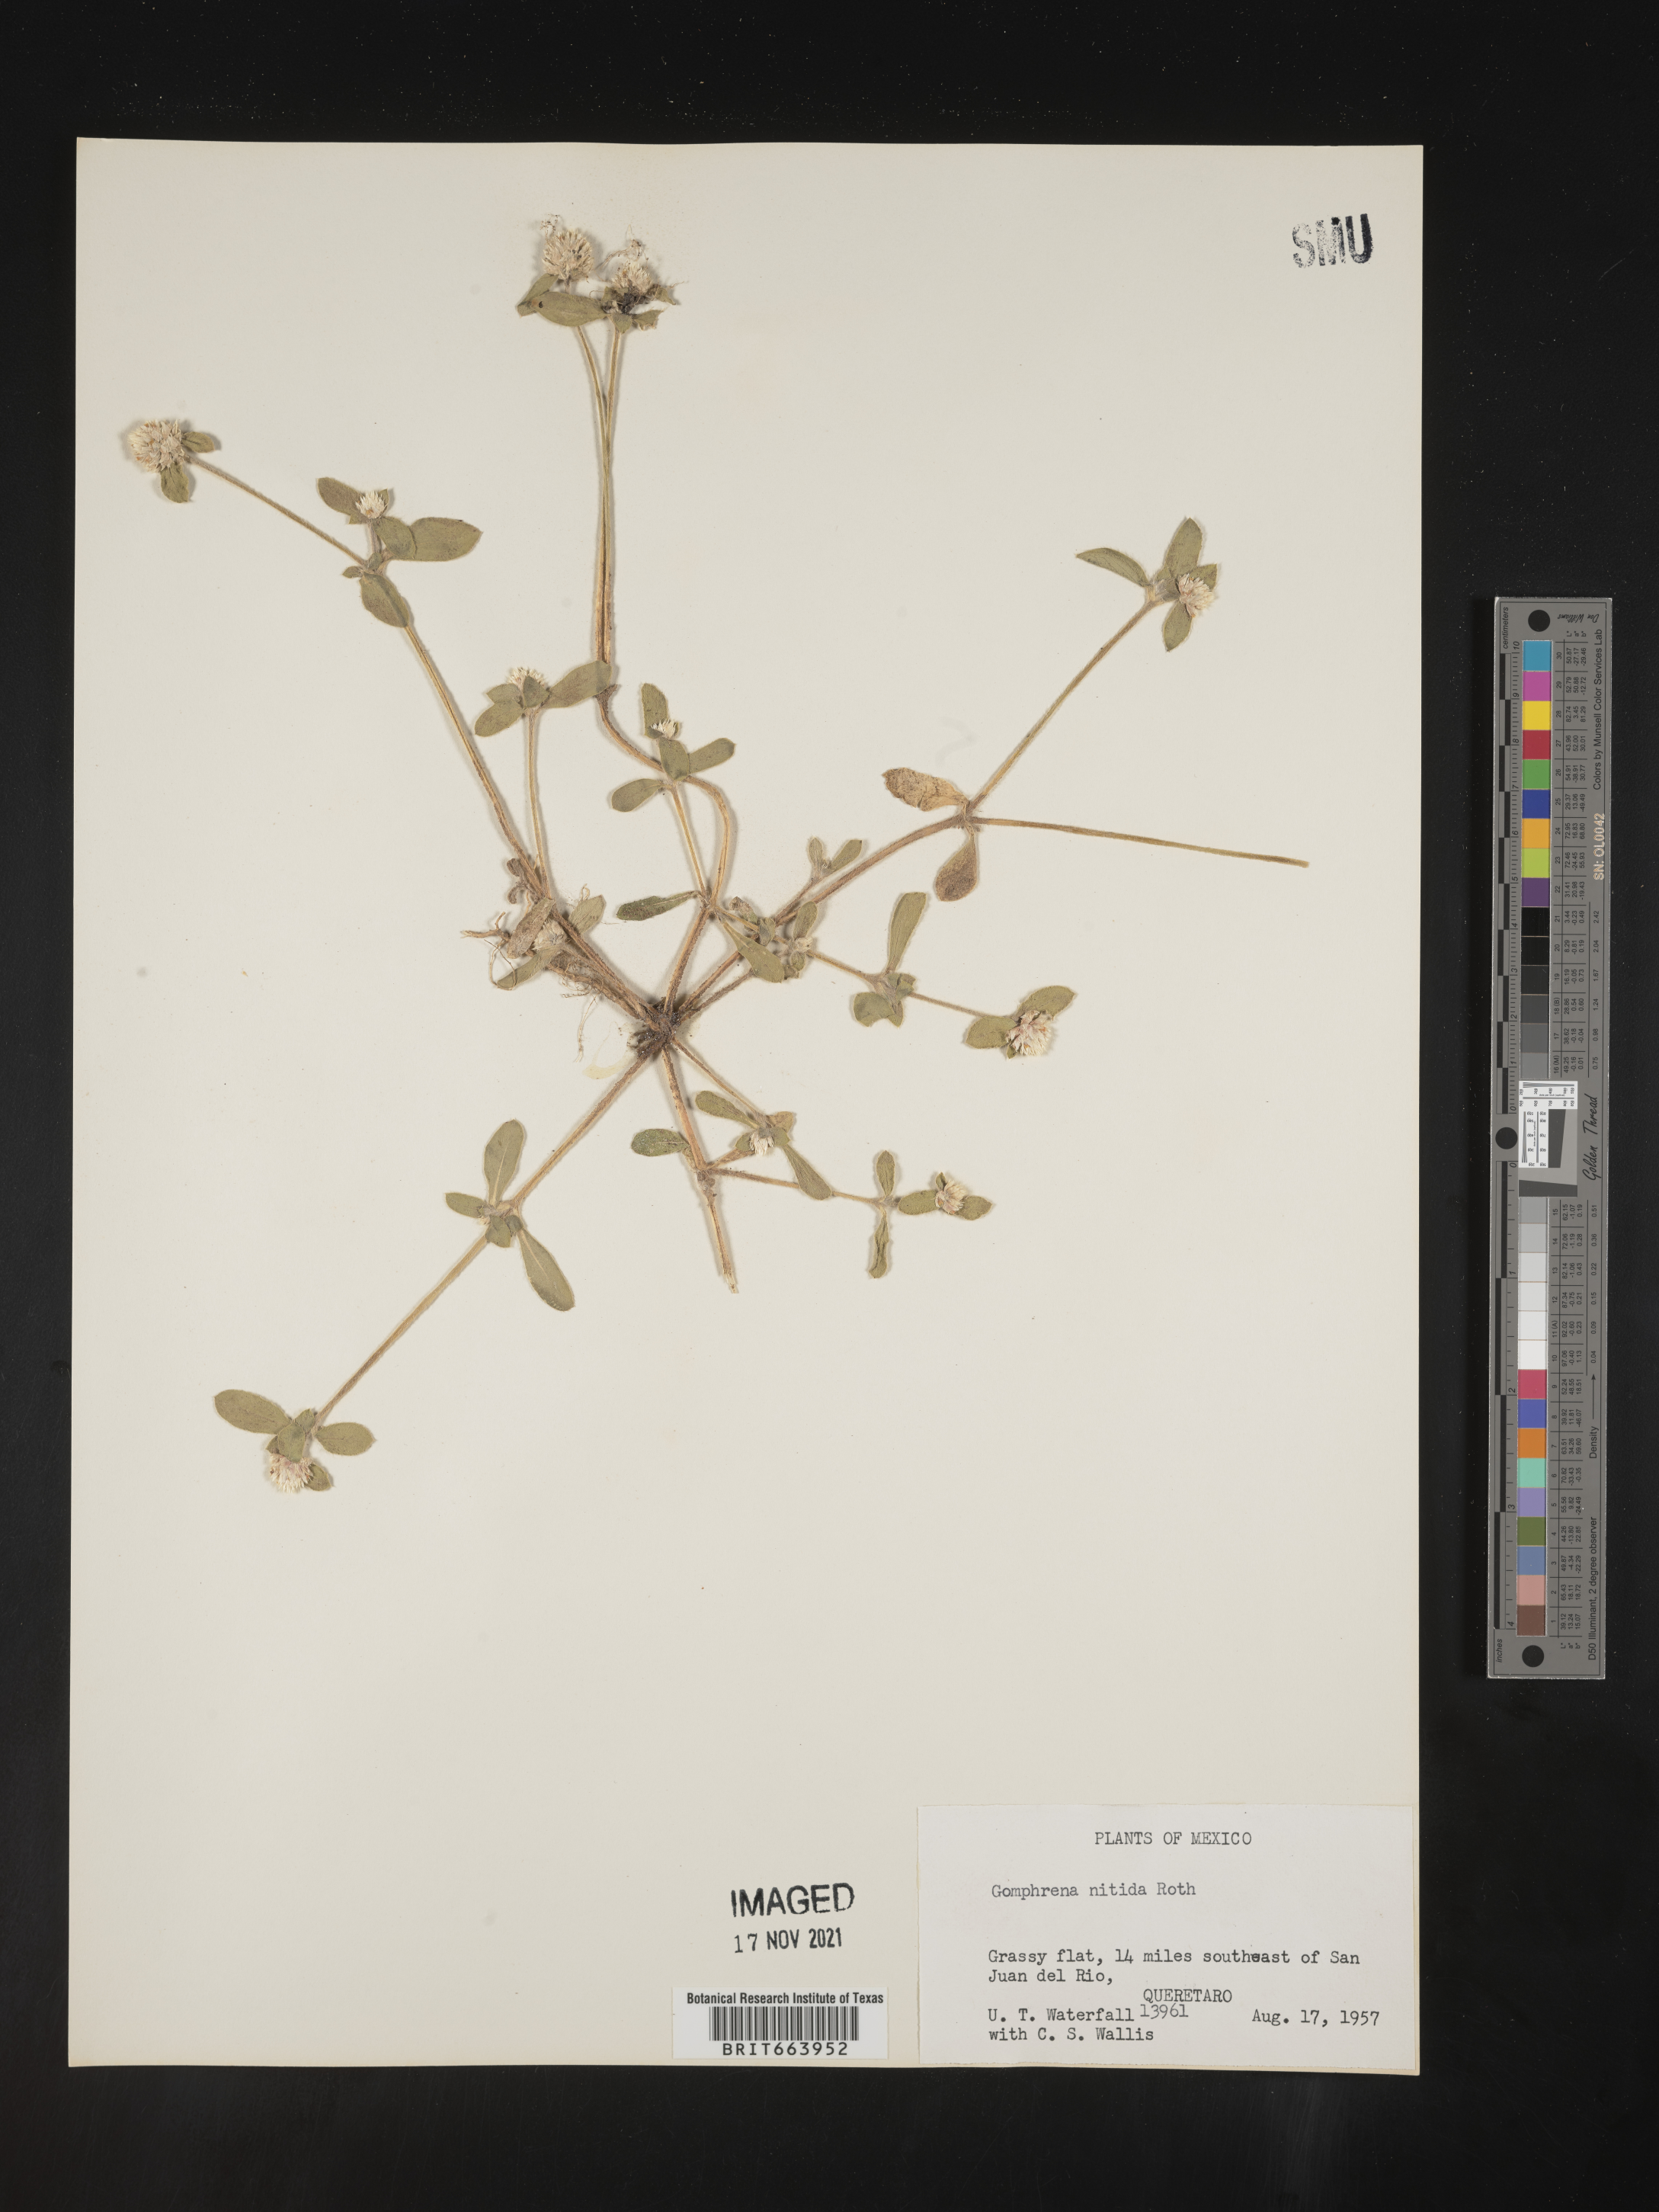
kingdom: Plantae
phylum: Tracheophyta
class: Magnoliopsida
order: Caryophyllales
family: Amaranthaceae
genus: Gomphrena
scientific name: Gomphrena
